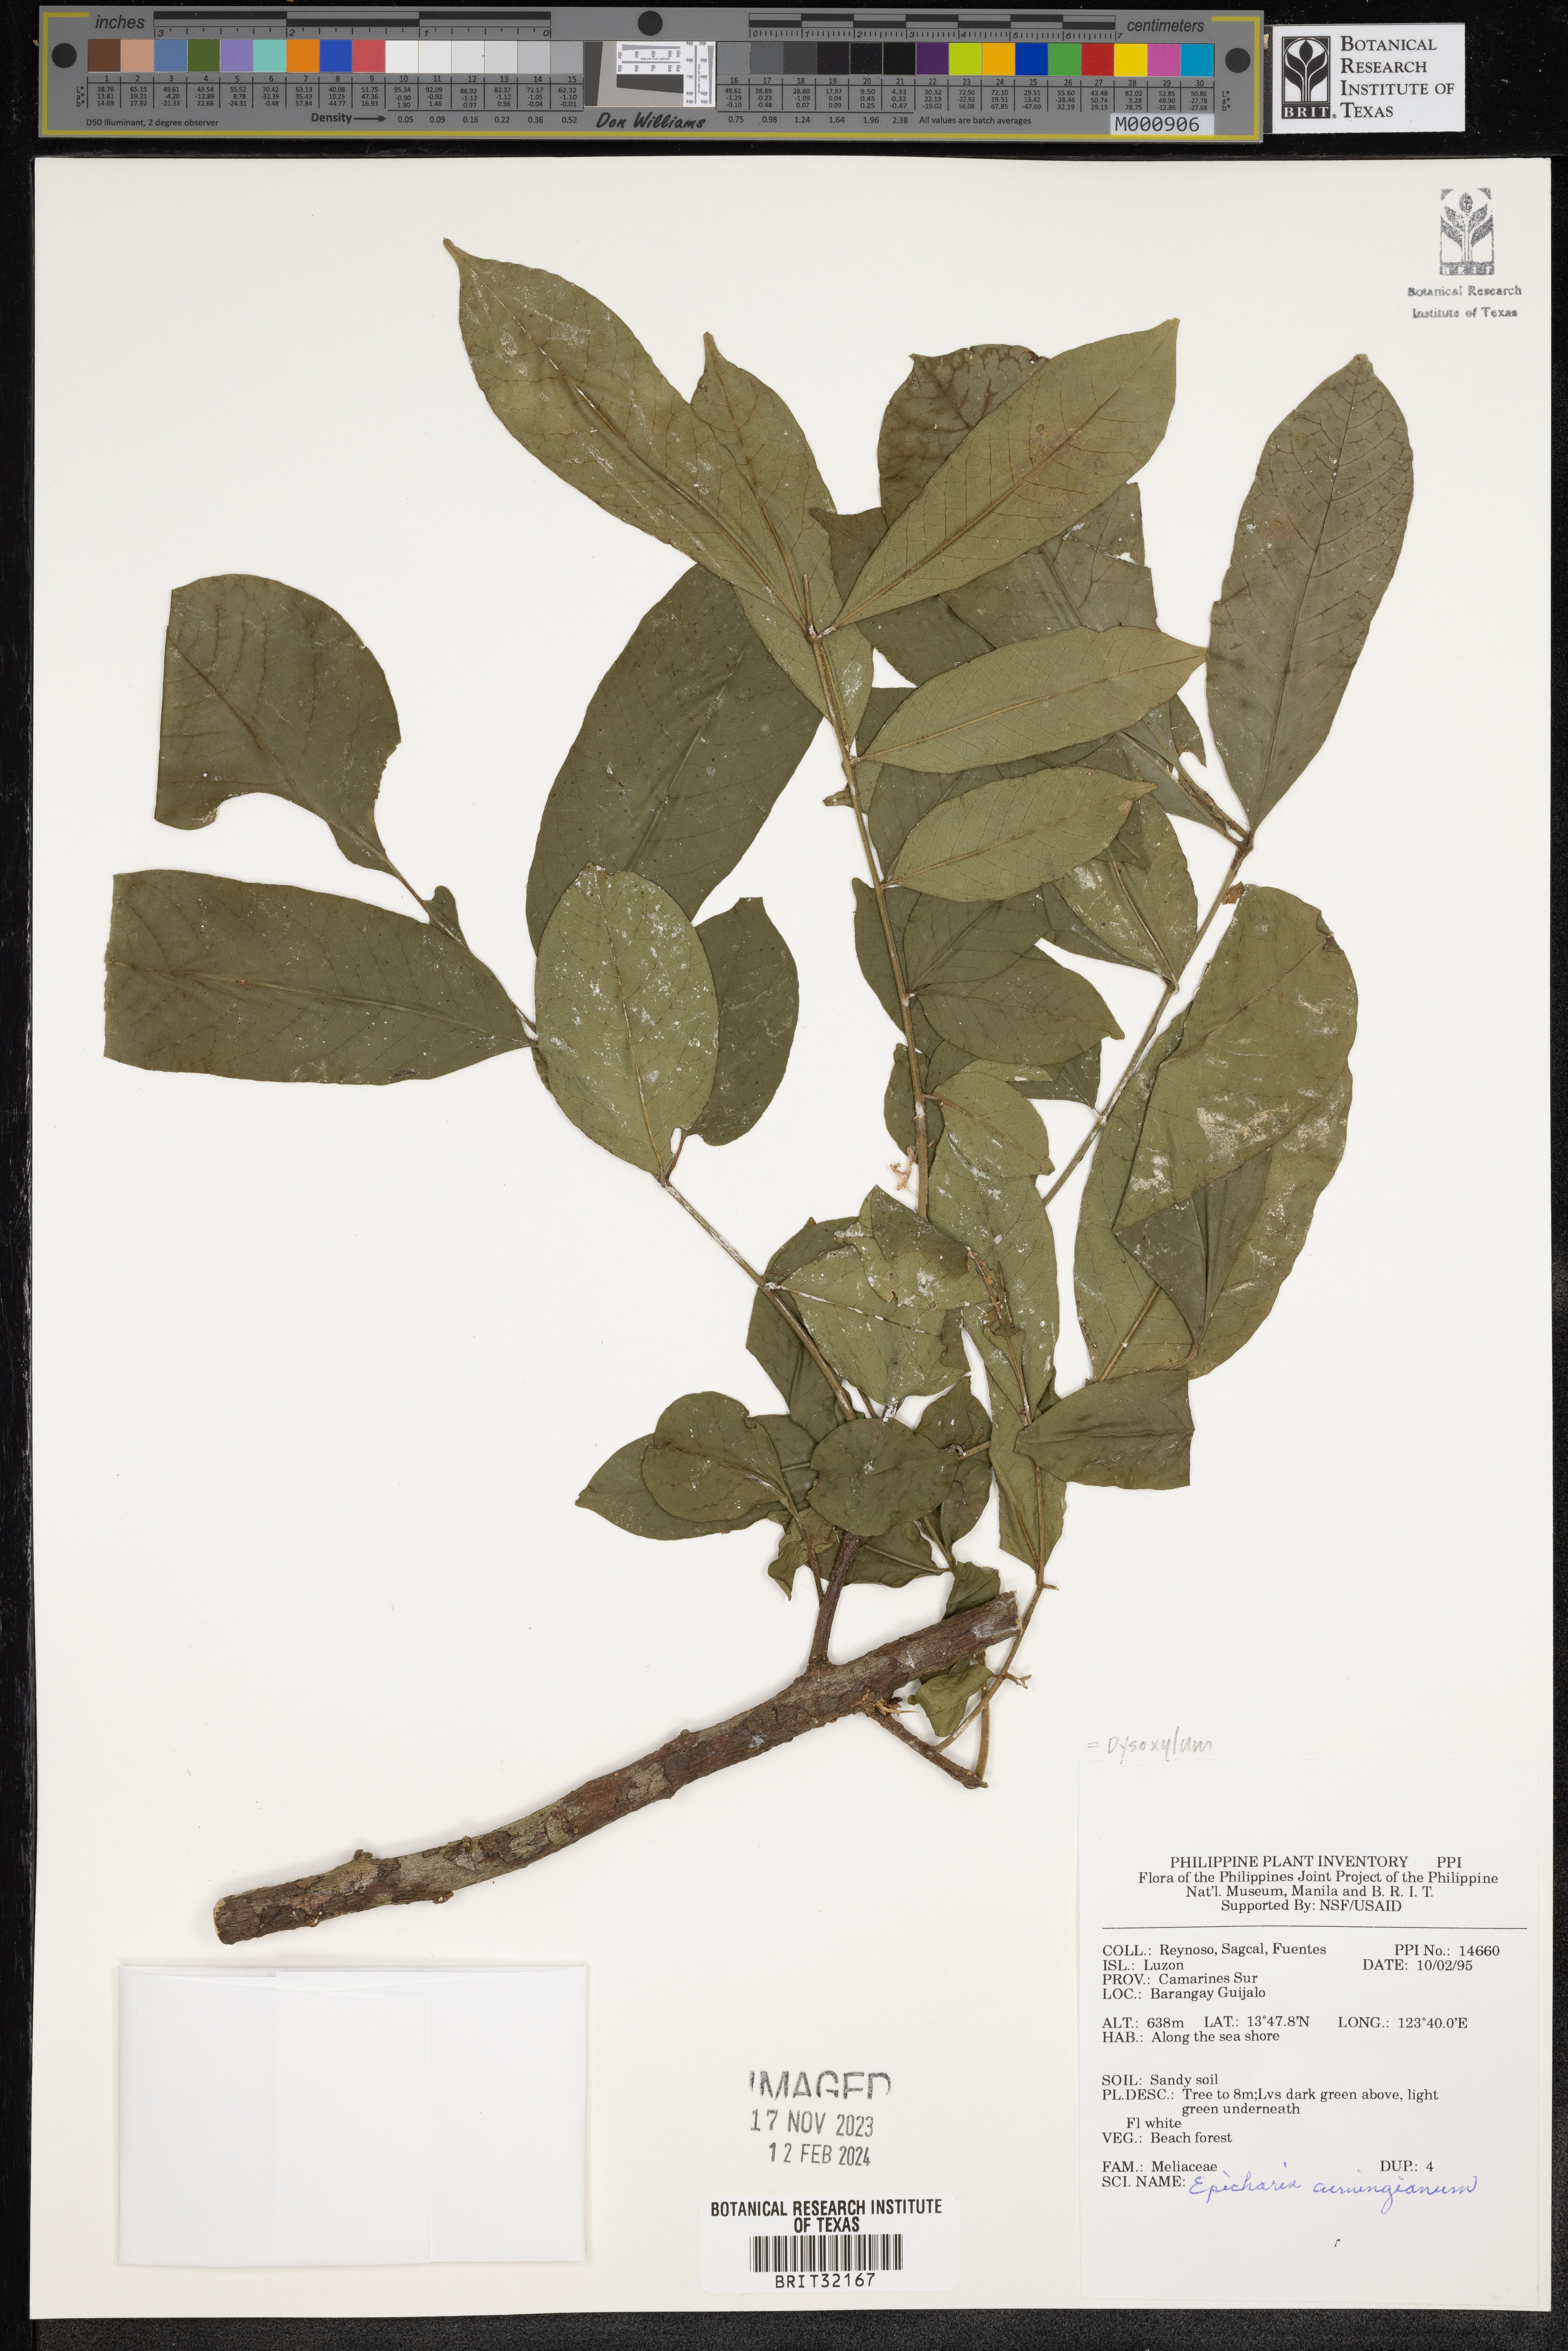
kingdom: Plantae
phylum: Tracheophyta
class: Magnoliopsida
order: Sapindales
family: Meliaceae
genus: Epicharis
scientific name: Epicharis cumingiana
